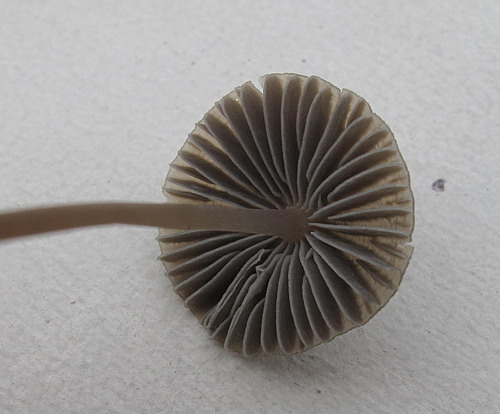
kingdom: Fungi
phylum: Basidiomycota
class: Agaricomycetes
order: Agaricales
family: Mycenaceae
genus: Mycena
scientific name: Mycena aetites
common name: plæne-huesvamp
